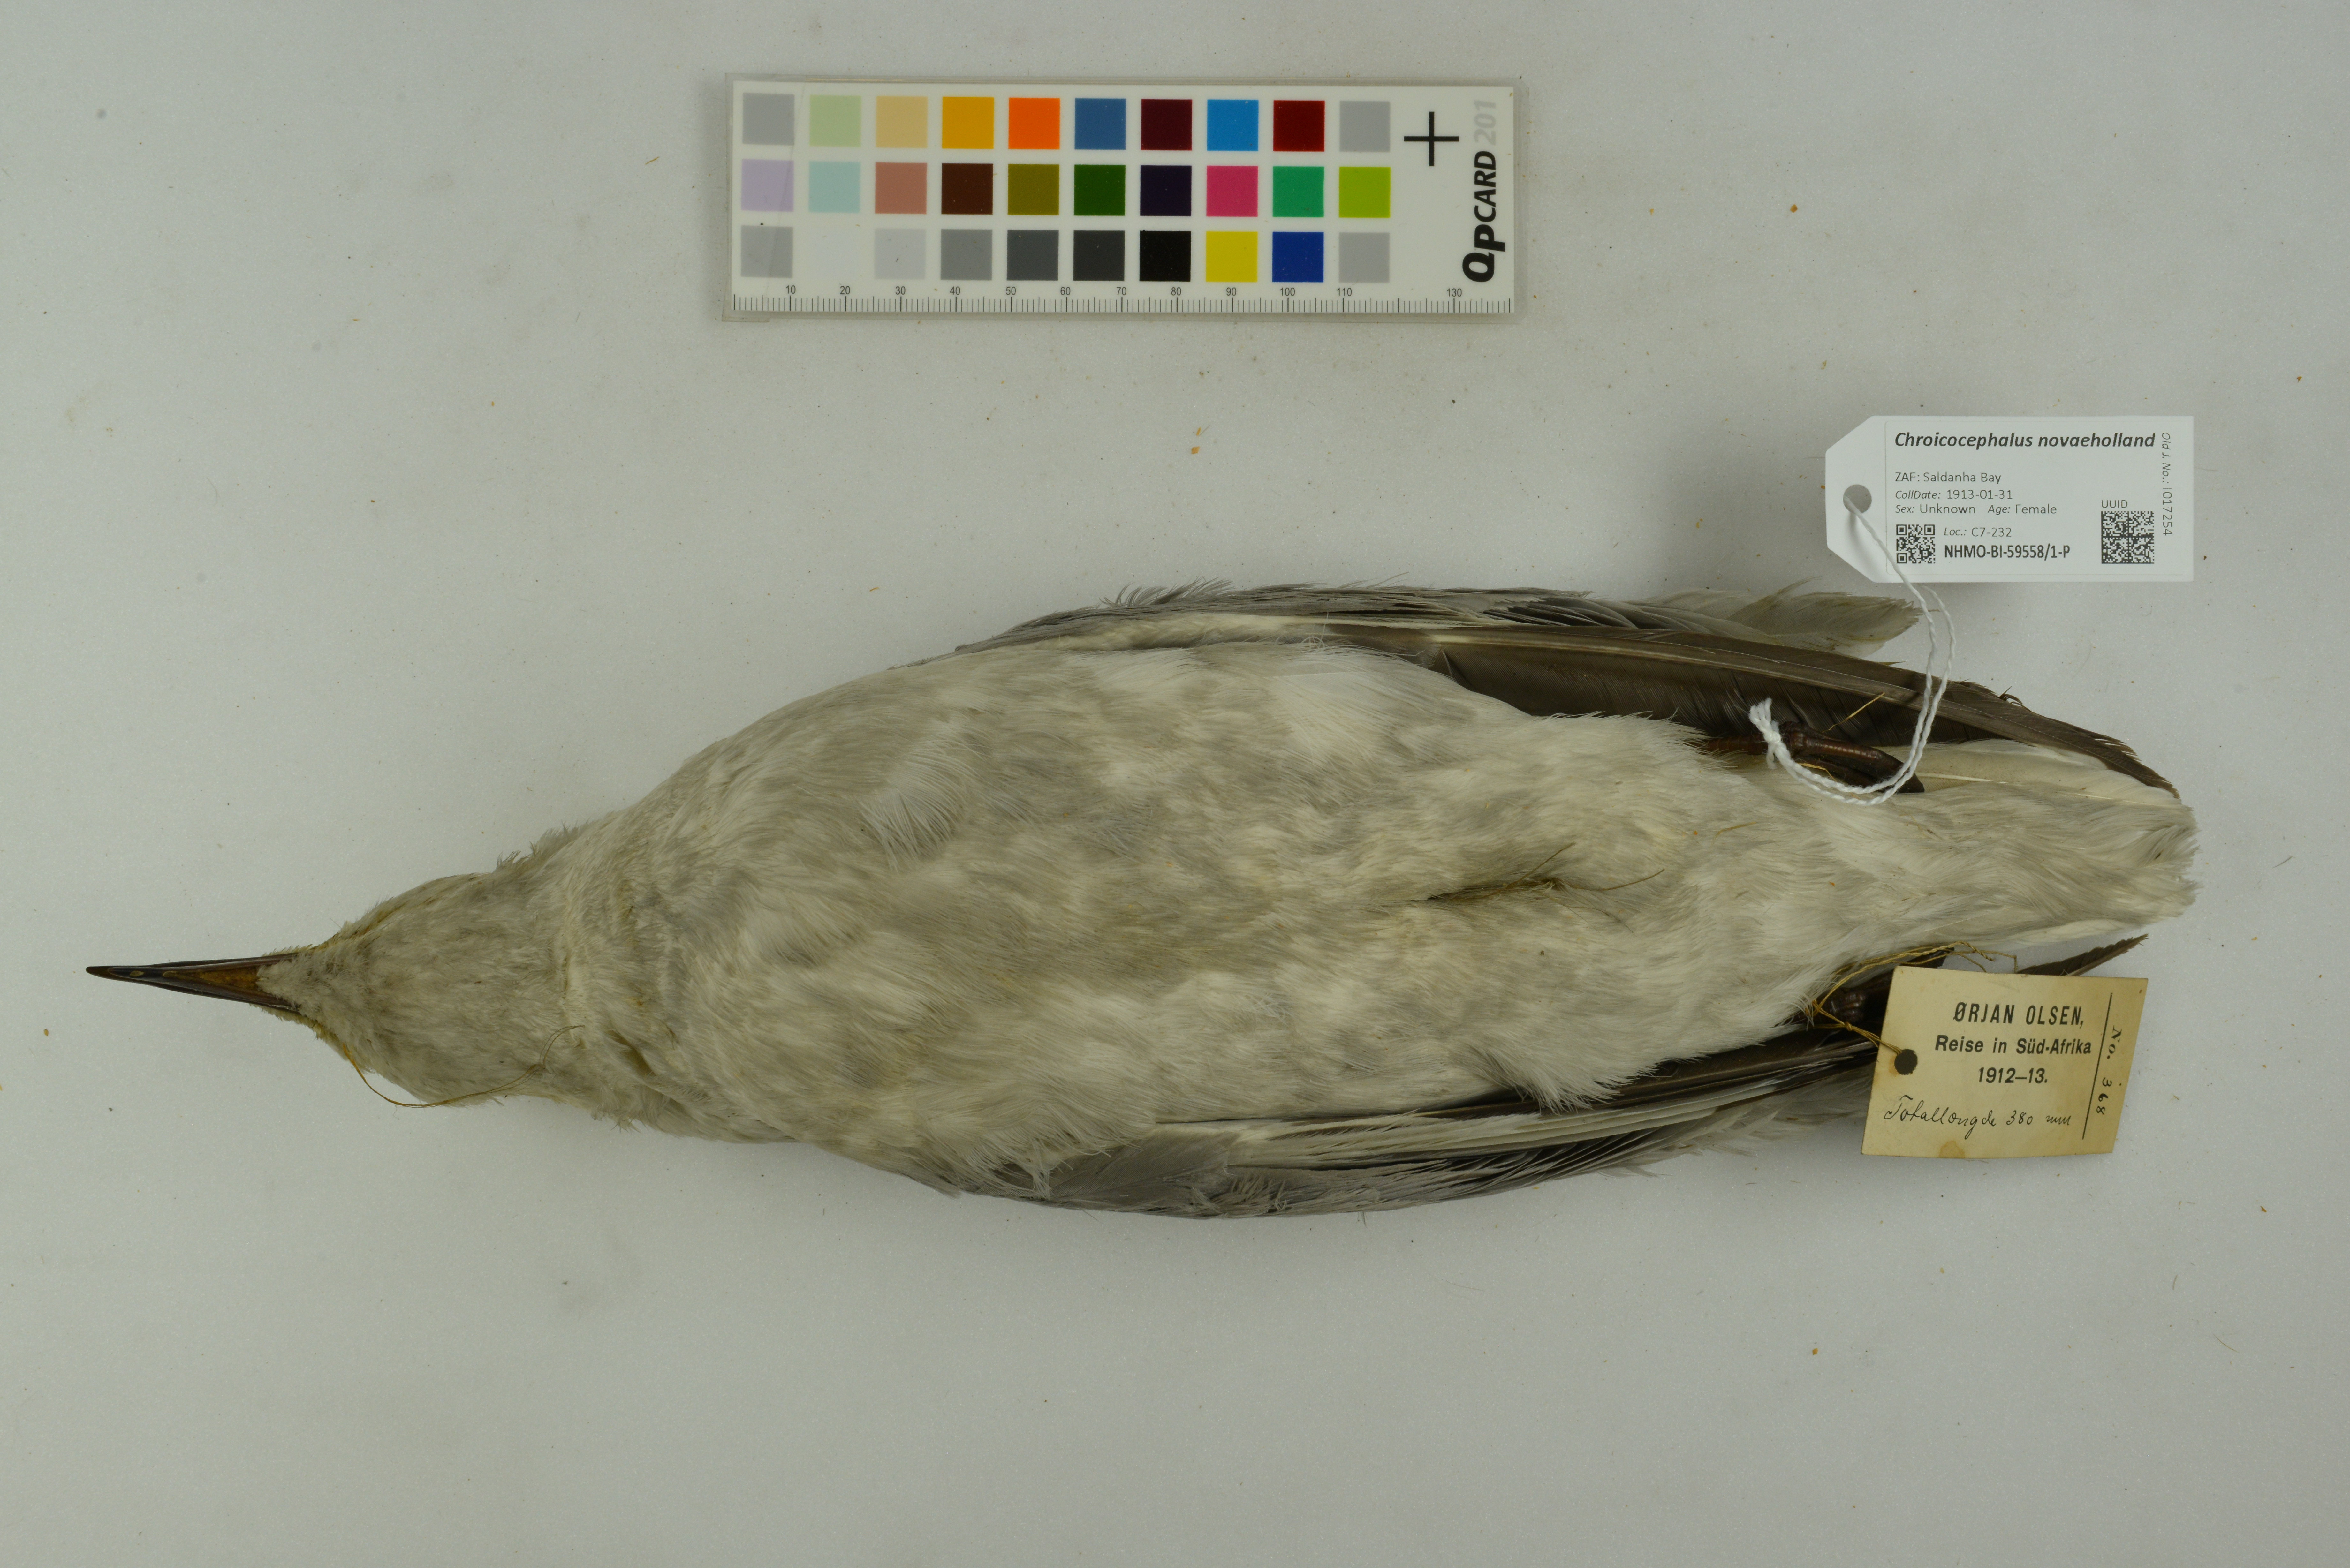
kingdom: Animalia
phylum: Chordata
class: Aves
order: Charadriiformes
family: Laridae
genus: Chroicocephalus
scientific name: Chroicocephalus novaehollandiae
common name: Silver gull
